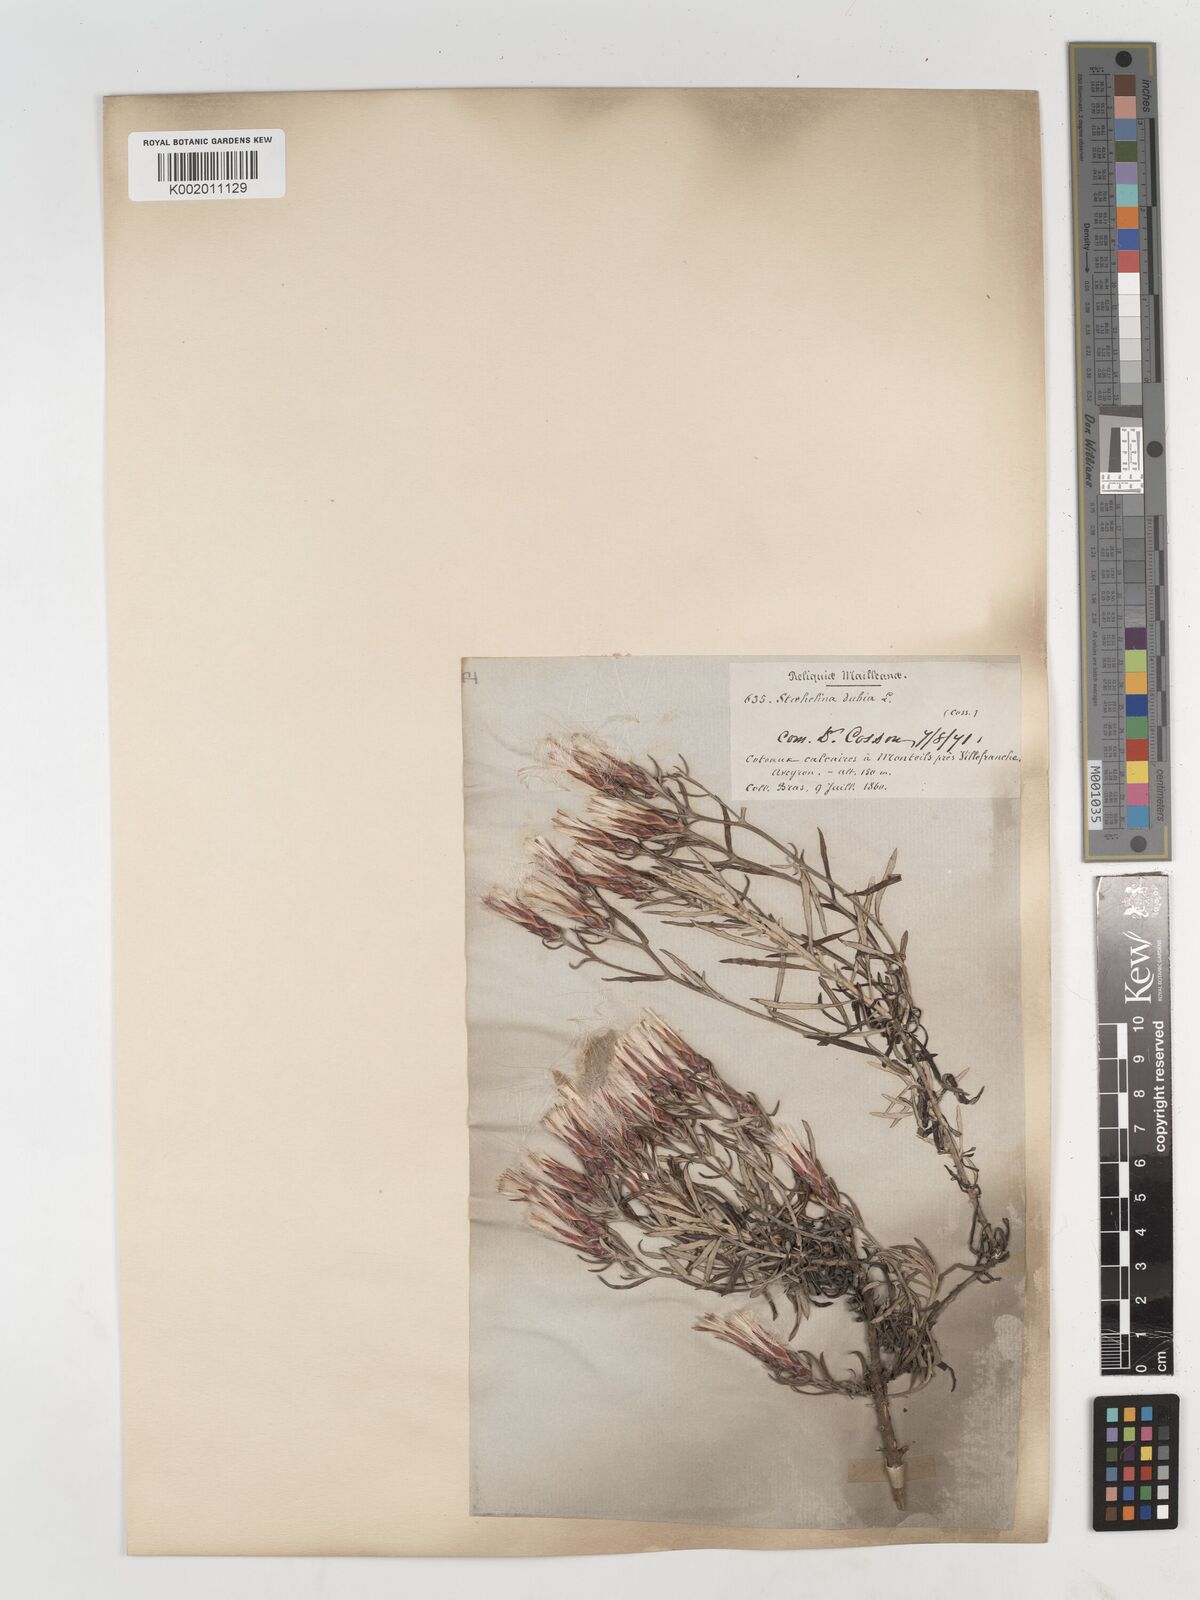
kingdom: Plantae
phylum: Tracheophyta
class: Magnoliopsida
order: Asterales
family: Asteraceae
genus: Staehelina
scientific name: Staehelina dubia
